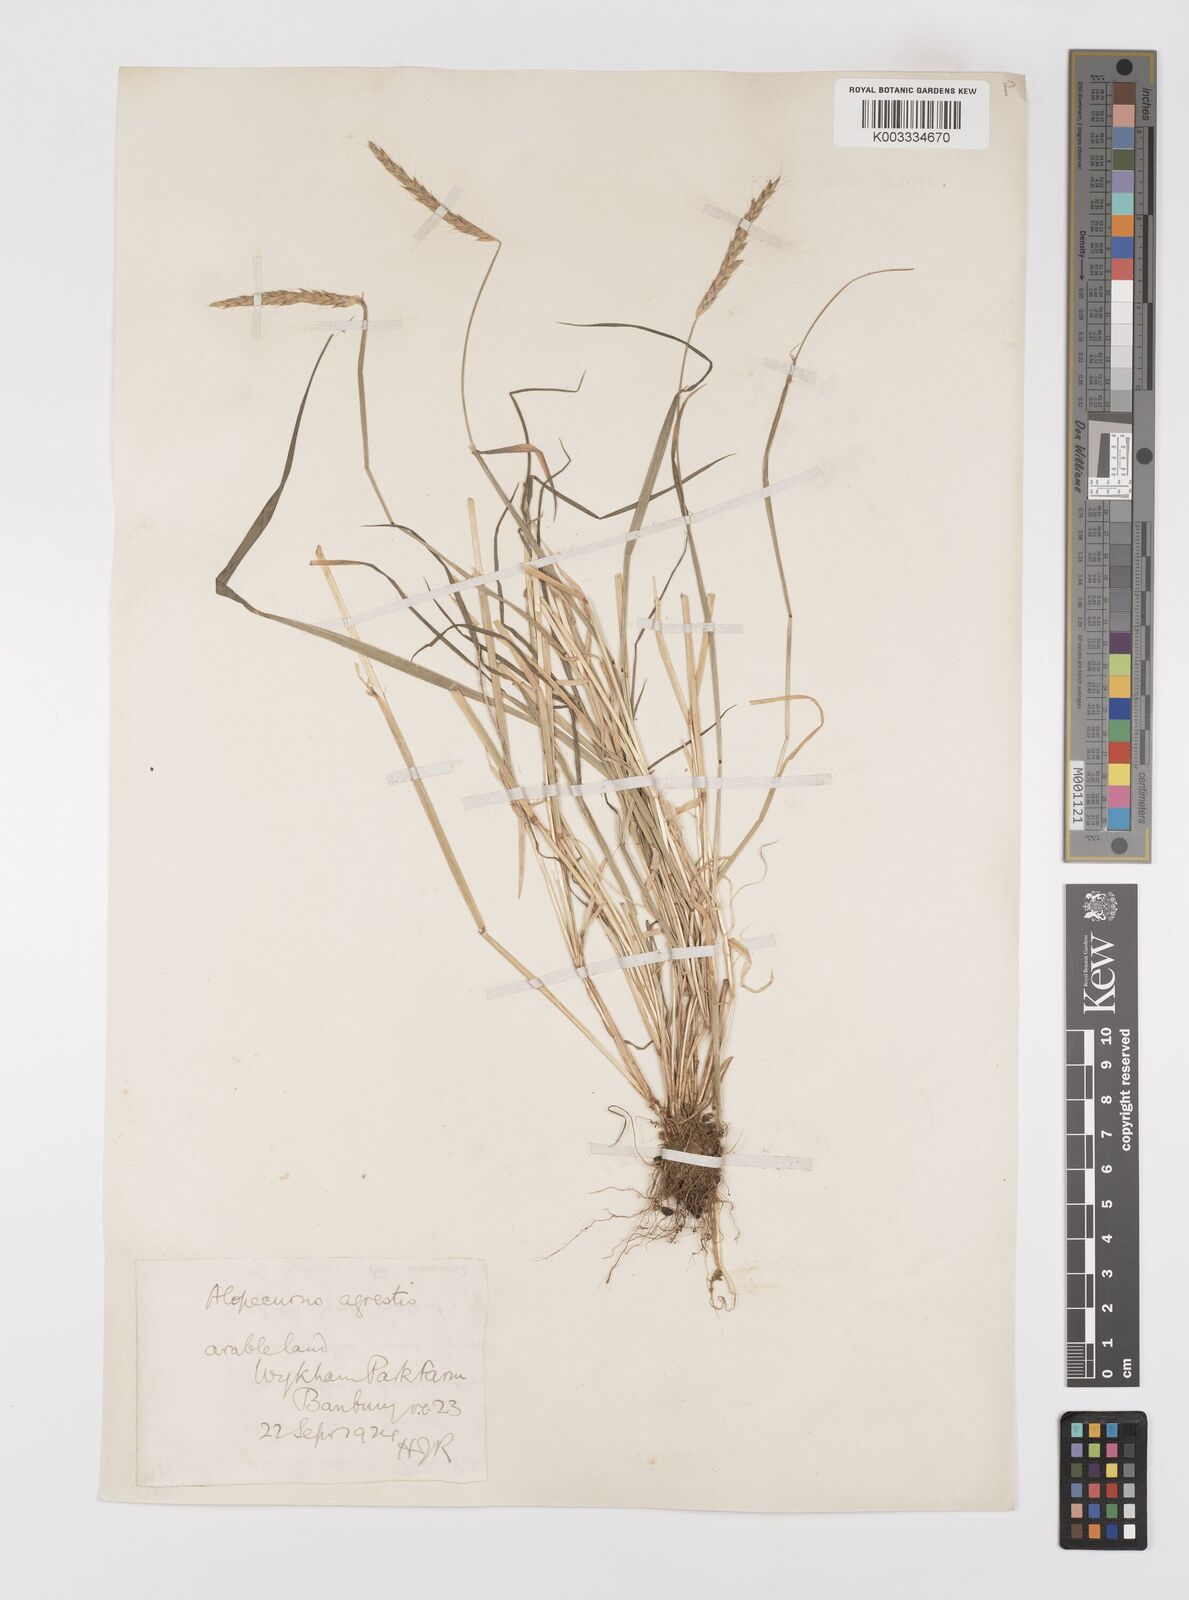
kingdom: Plantae
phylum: Tracheophyta
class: Liliopsida
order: Poales
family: Poaceae
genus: Alopecurus
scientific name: Alopecurus myosuroides
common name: Black-grass
